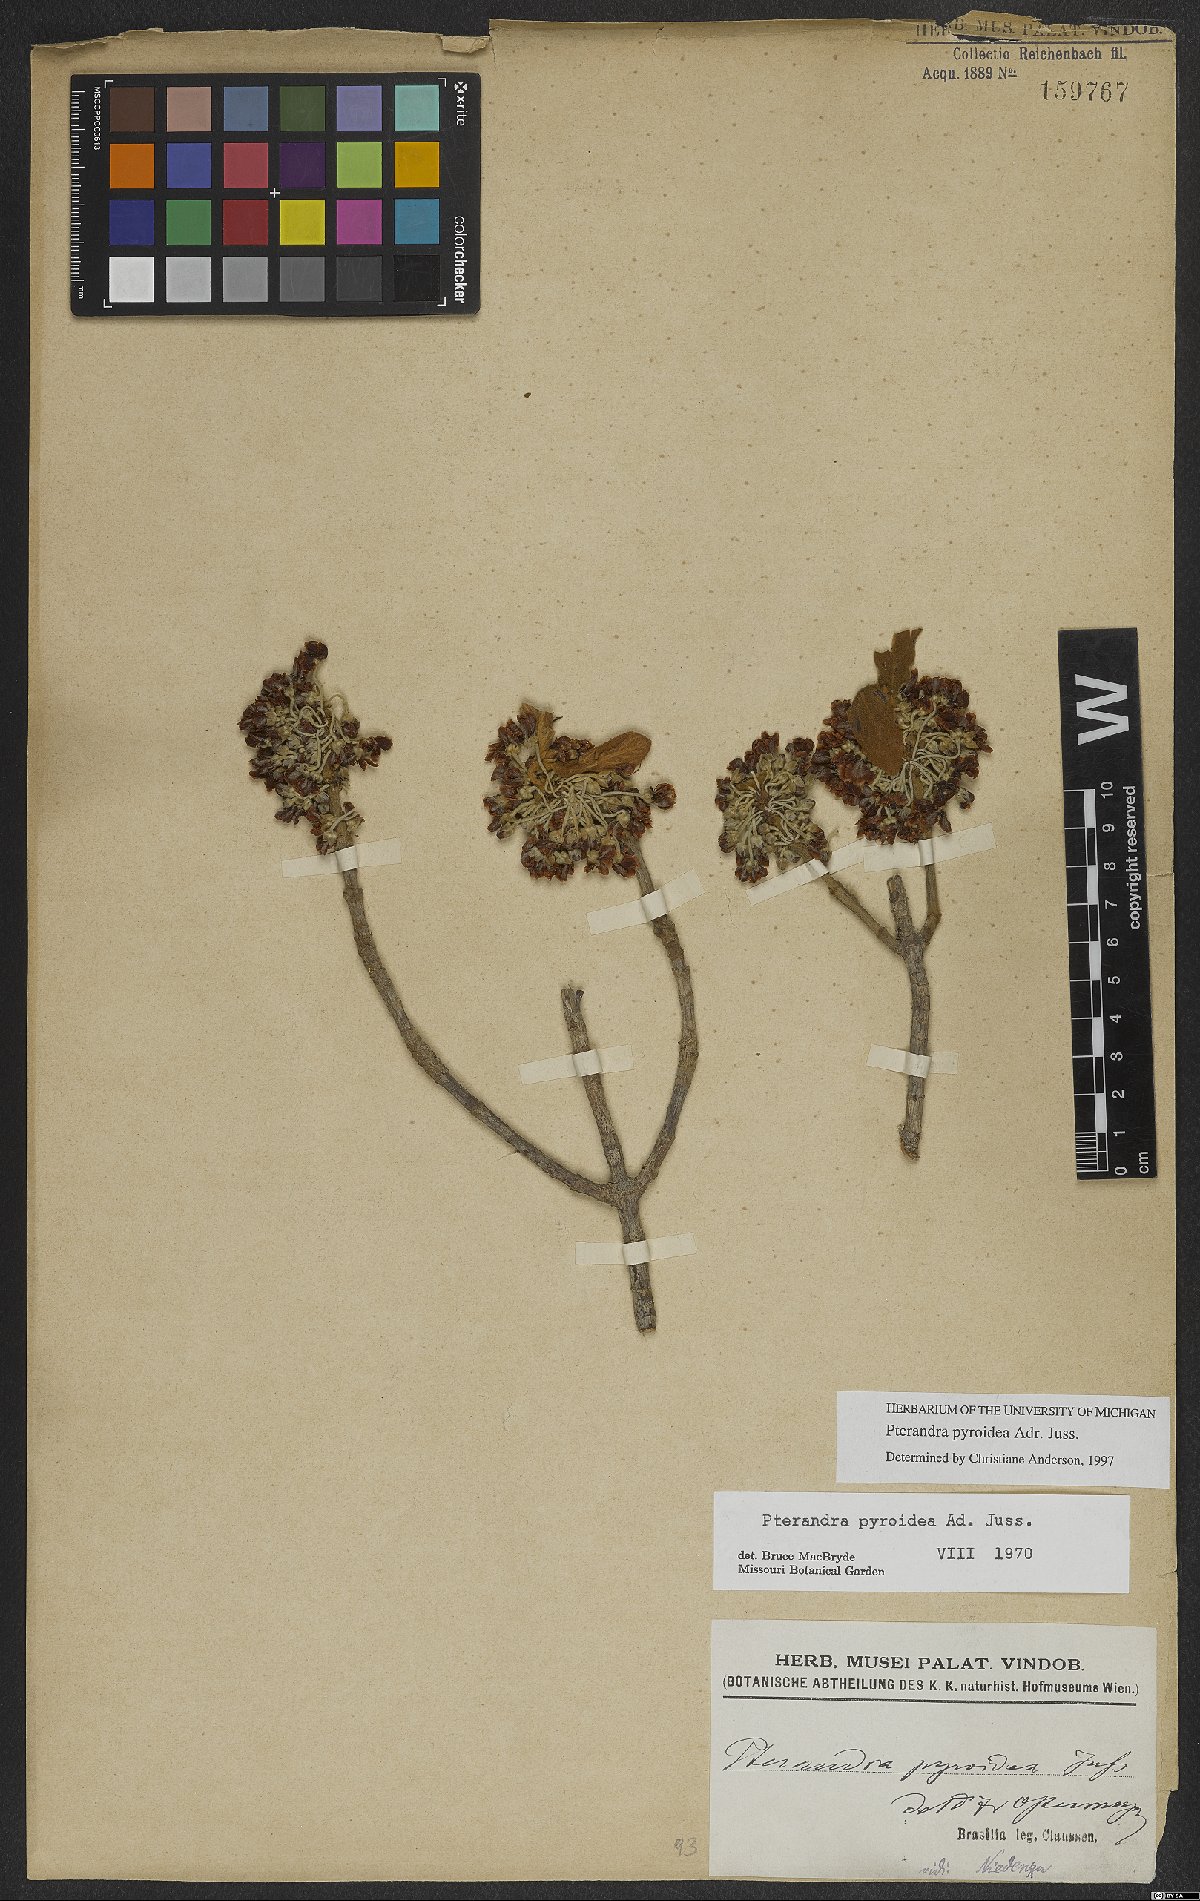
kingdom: Plantae
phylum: Tracheophyta
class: Magnoliopsida
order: Malpighiales
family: Malpighiaceae
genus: Pterandra
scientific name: Pterandra pyroidea
